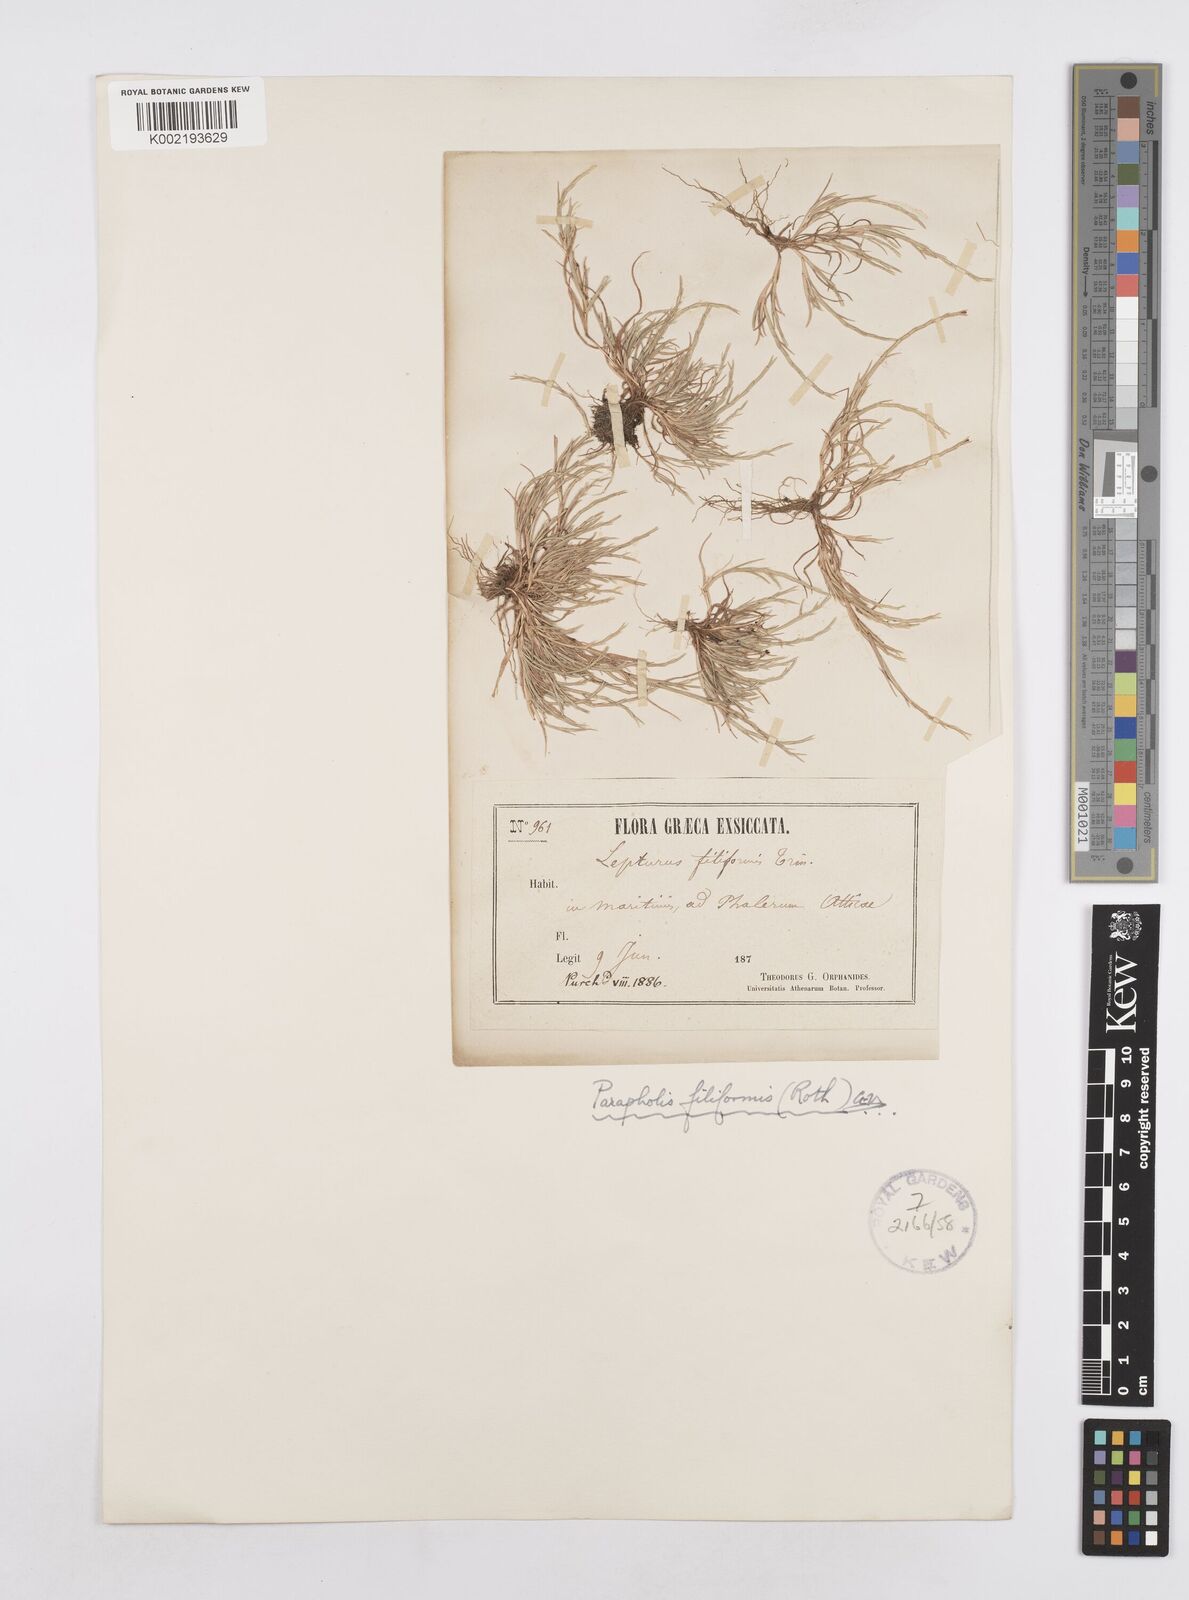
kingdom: Plantae
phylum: Tracheophyta
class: Liliopsida
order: Poales
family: Poaceae
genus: Parapholis
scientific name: Parapholis filiformis
